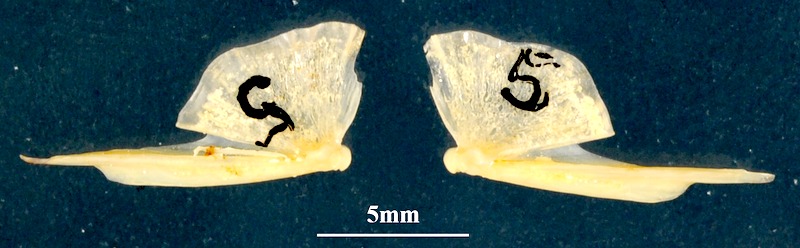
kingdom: Animalia
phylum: Chordata
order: Mugiliformes
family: Mugilidae
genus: Chelon
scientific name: Chelon auratus
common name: Golden grey mullet
